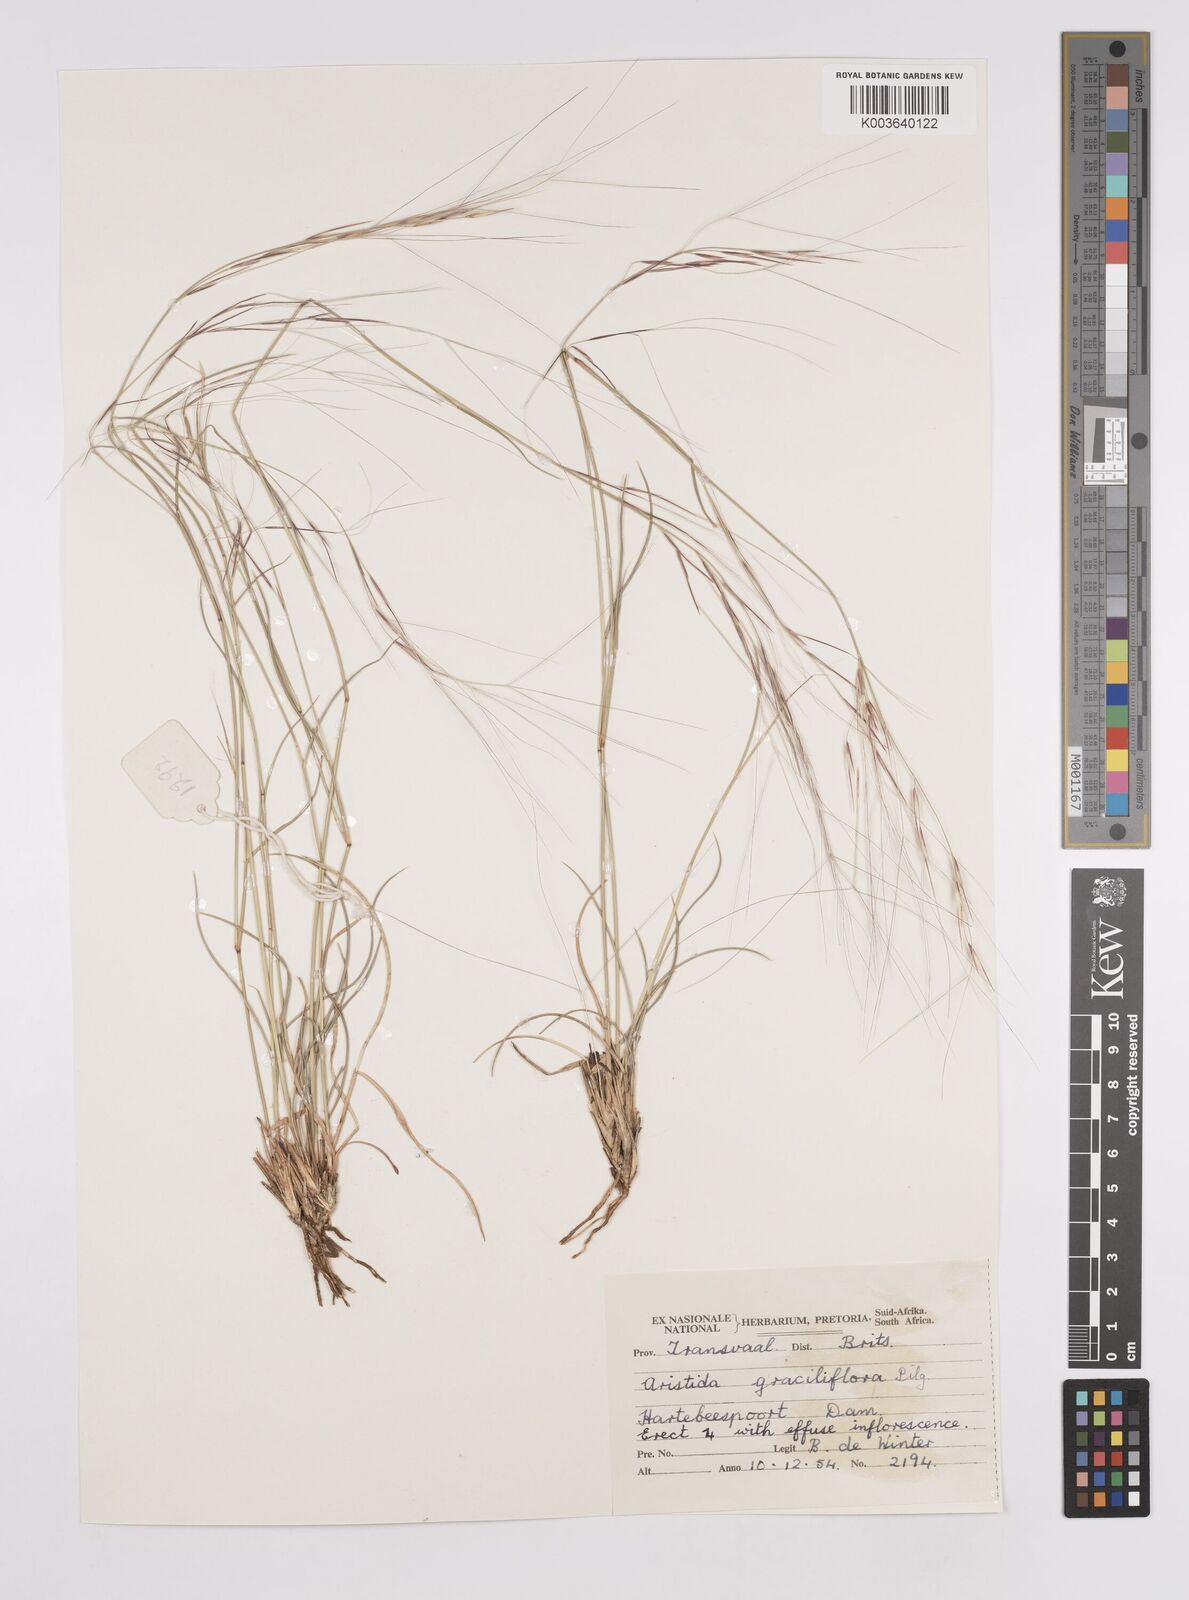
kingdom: Plantae
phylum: Tracheophyta
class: Liliopsida
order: Poales
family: Poaceae
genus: Aristida
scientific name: Aristida stipitata
